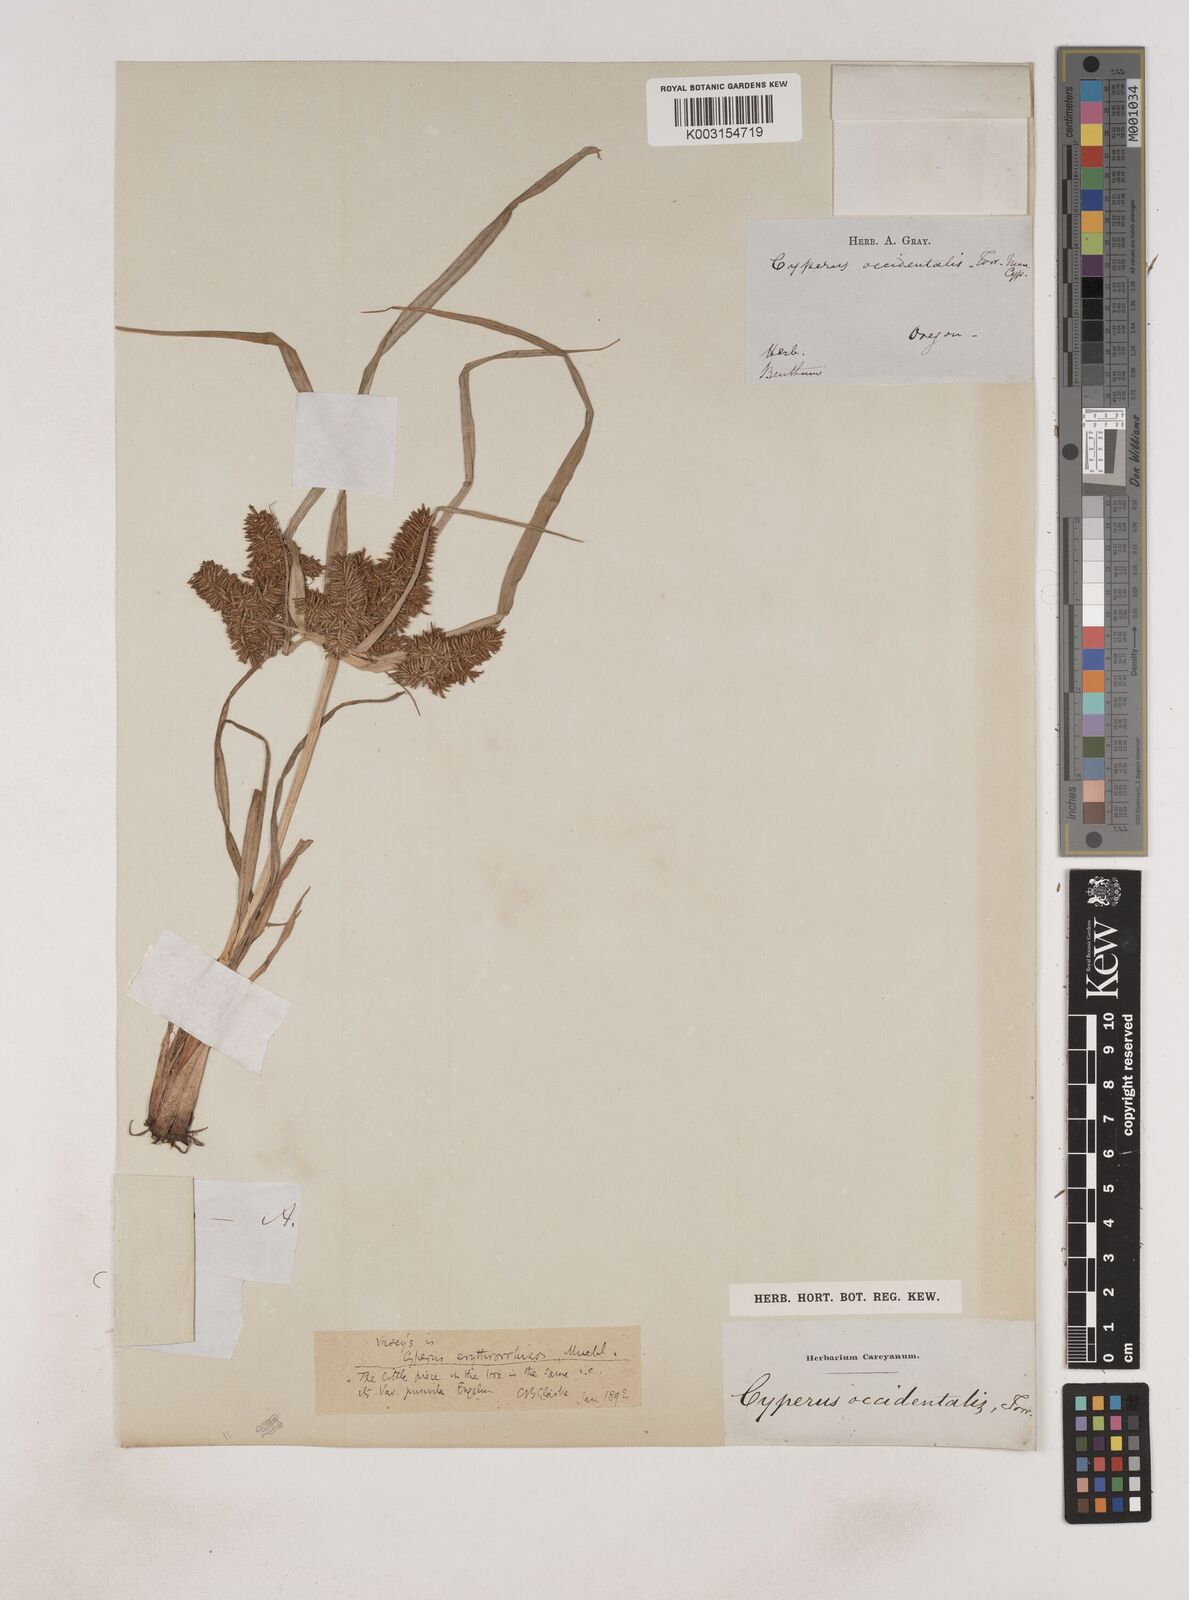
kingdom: Plantae
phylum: Tracheophyta
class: Liliopsida
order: Poales
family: Cyperaceae
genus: Cyperus
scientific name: Cyperus erythrorhizos
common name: Red-root flat sedge
